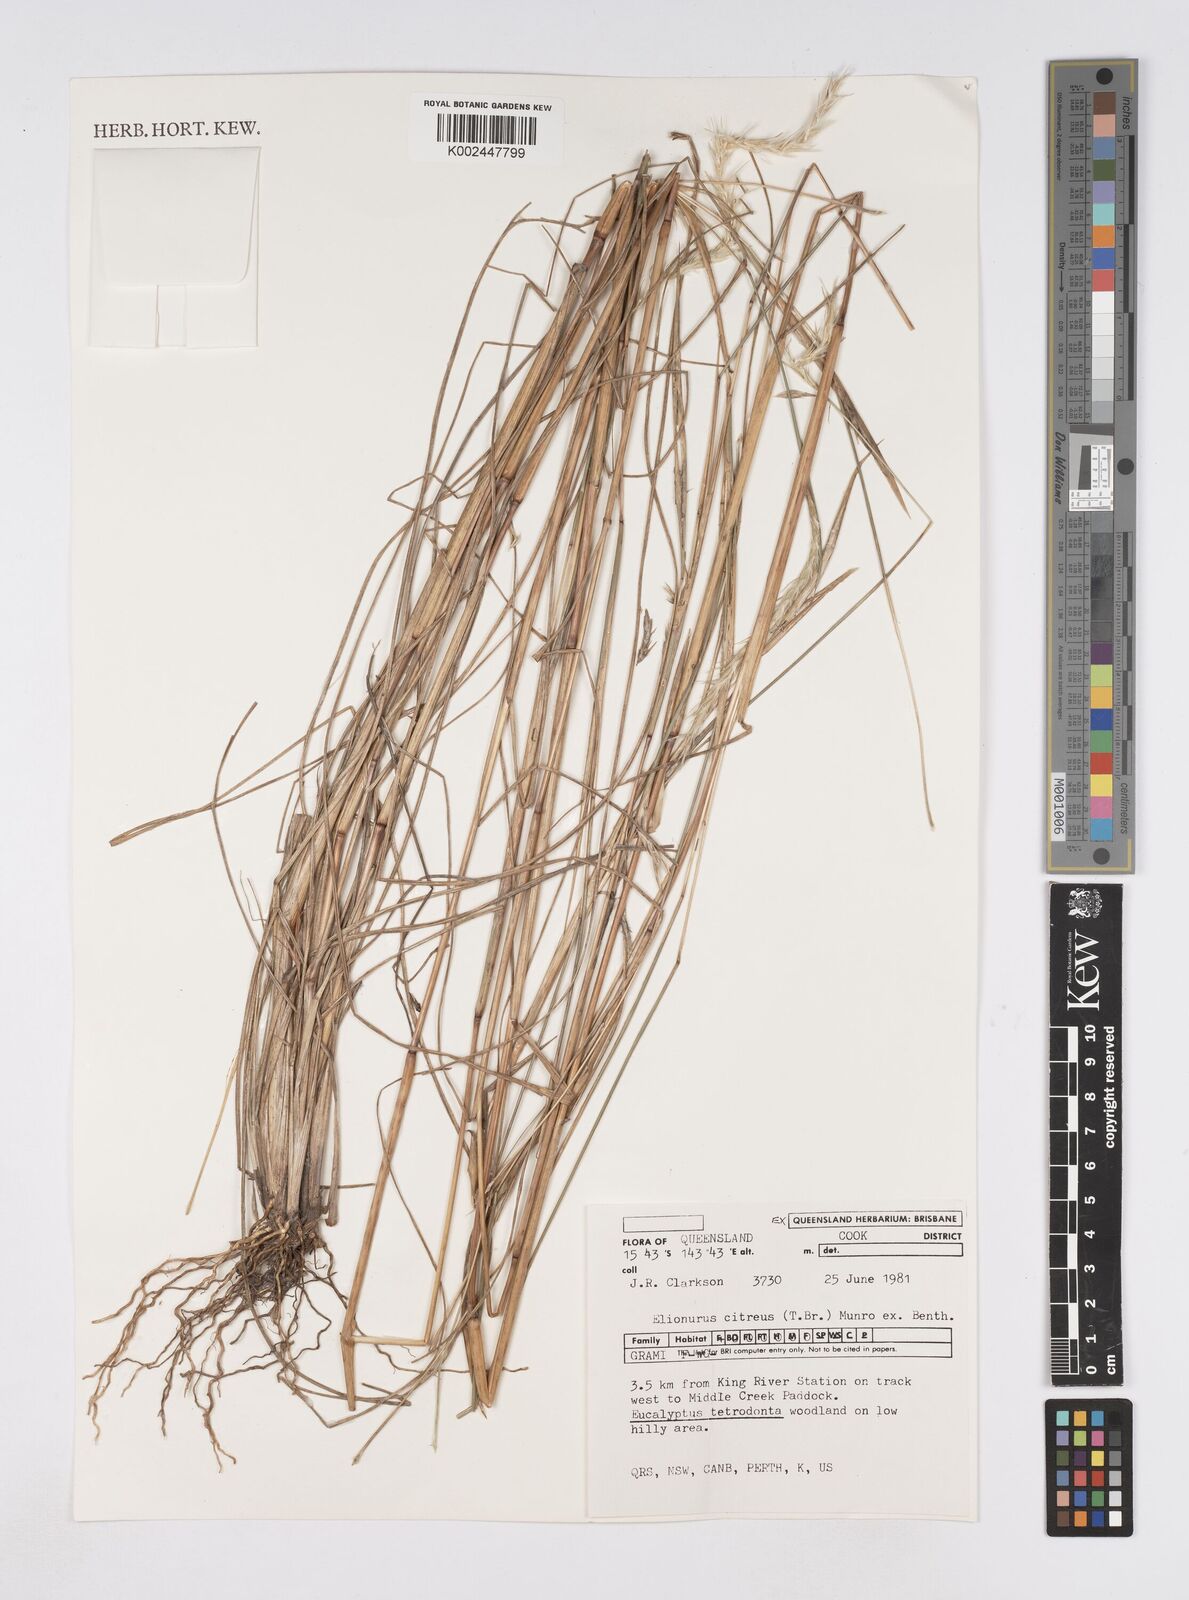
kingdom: Plantae
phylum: Tracheophyta
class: Liliopsida
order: Poales
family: Poaceae
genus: Elionurus
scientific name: Elionurus citreus
